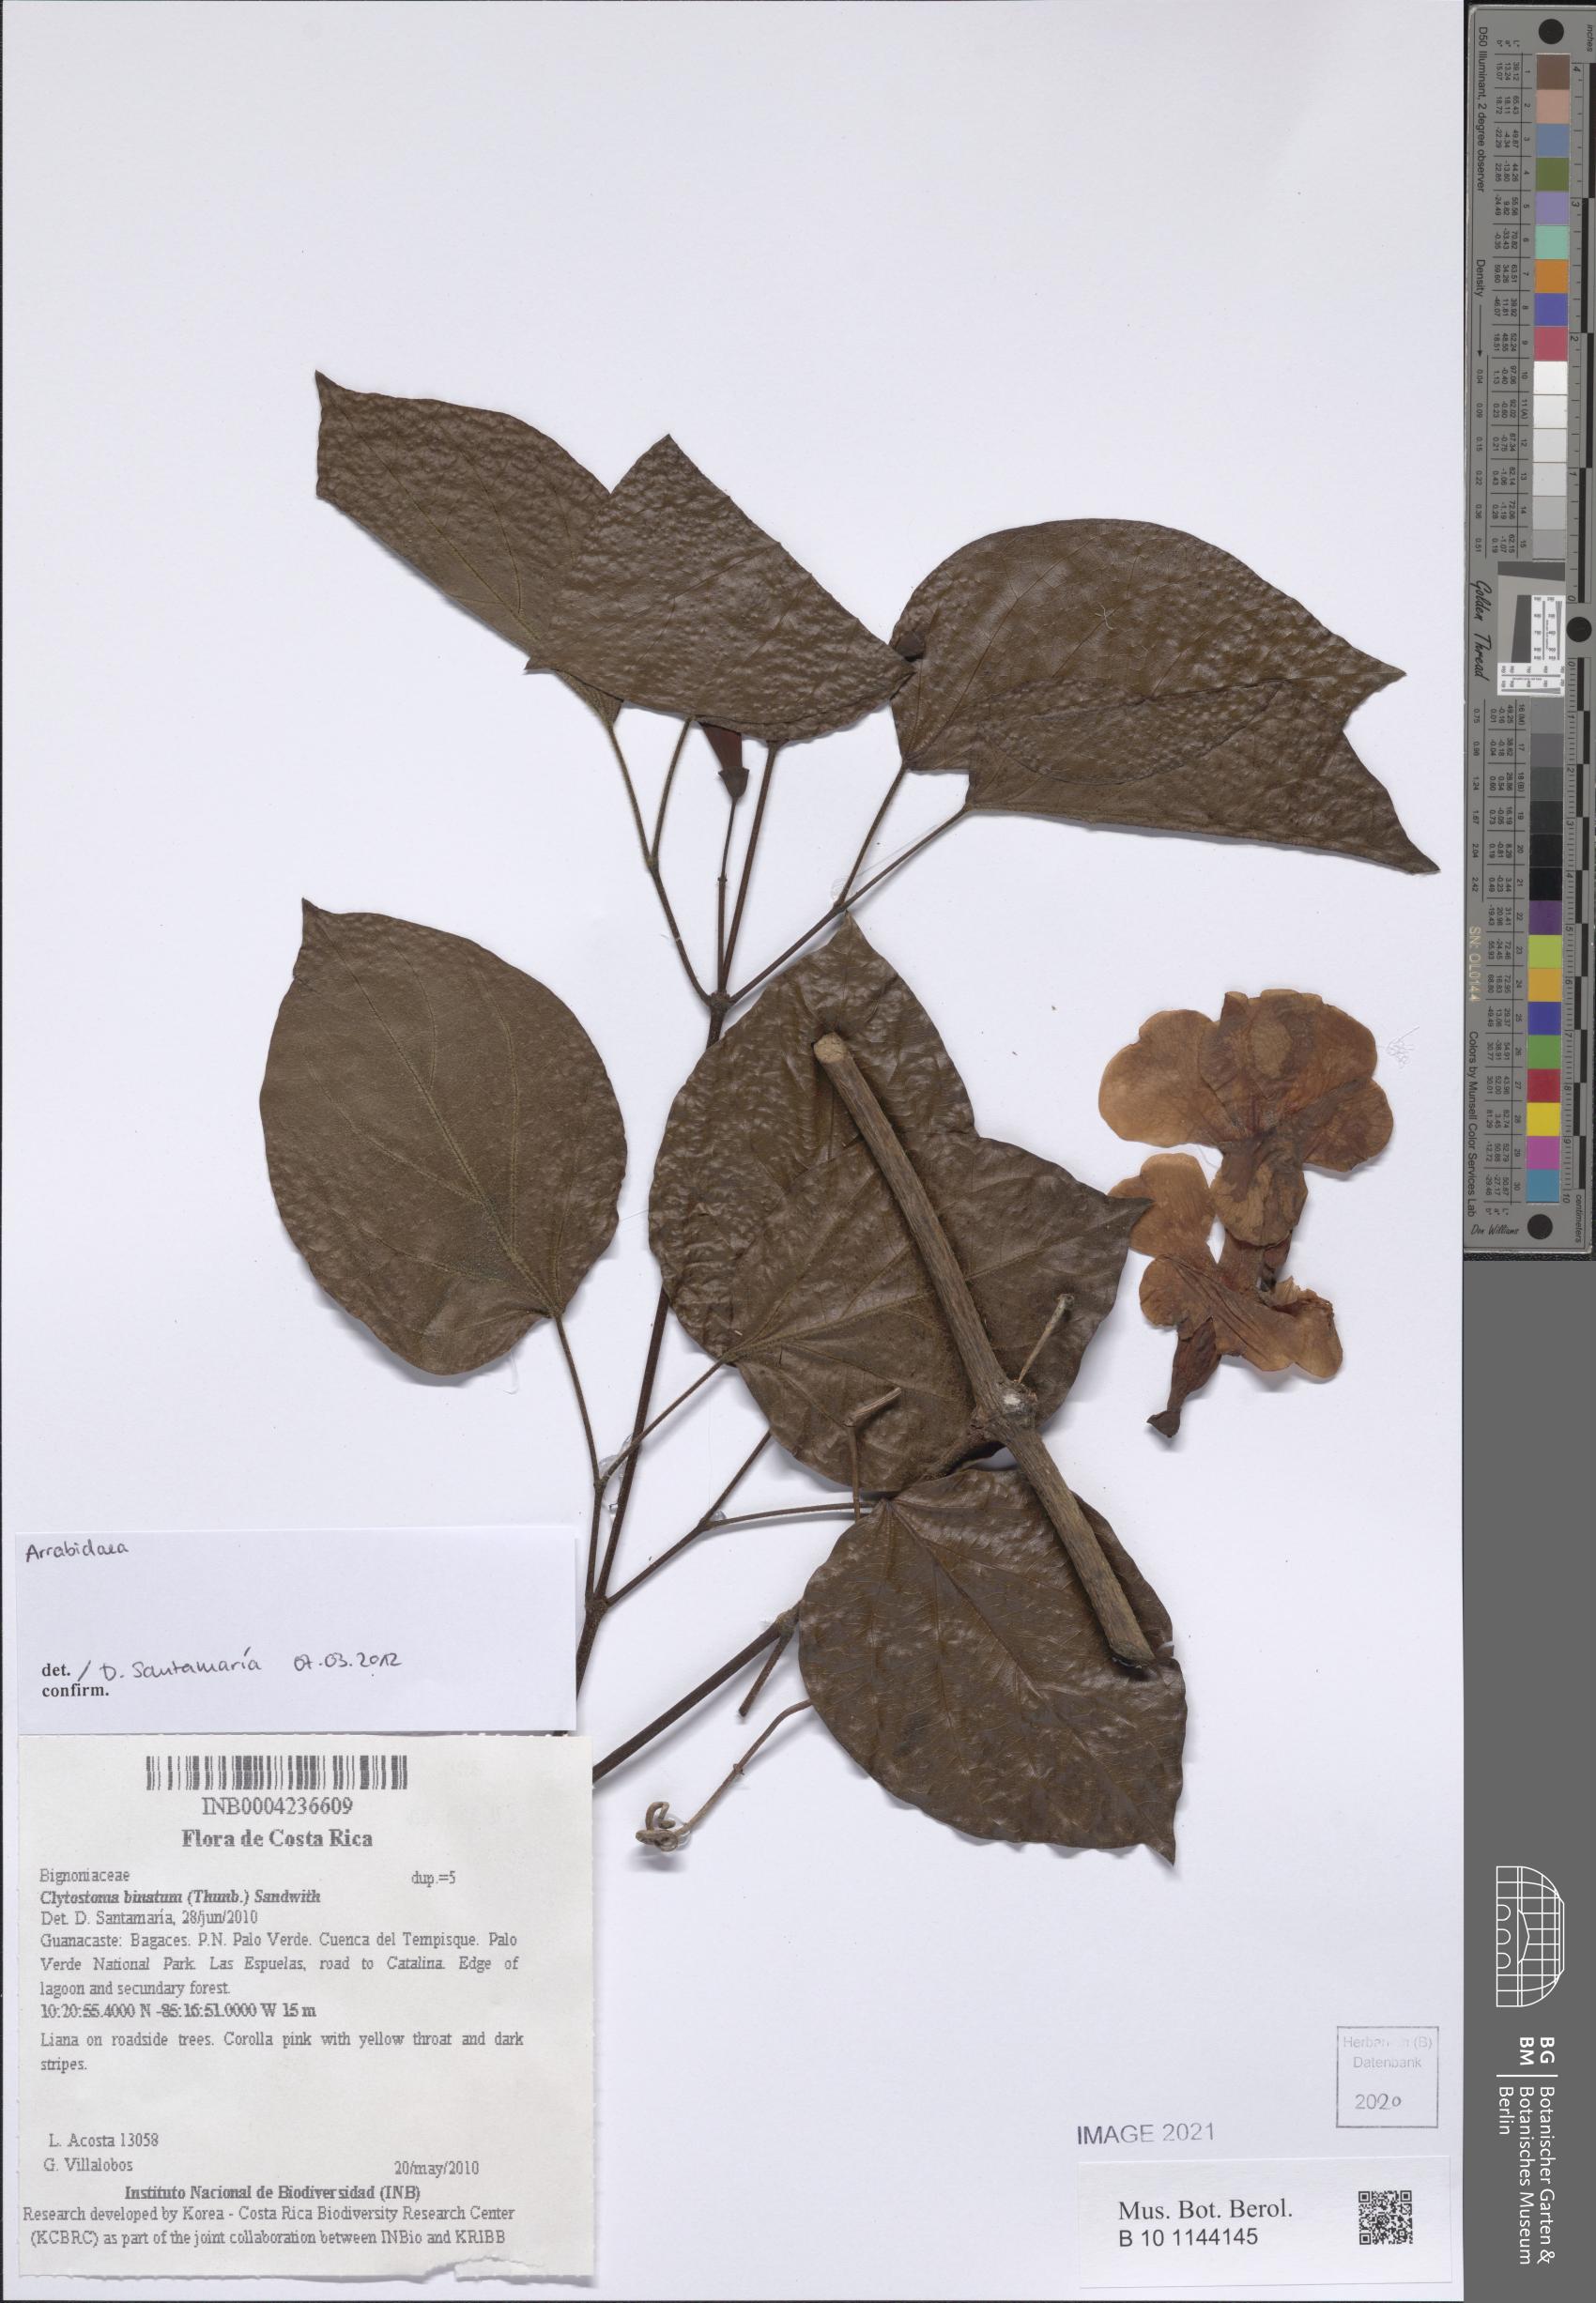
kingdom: Plantae
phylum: Tracheophyta
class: Magnoliopsida
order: Rosales
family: Rhamnaceae
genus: Arrabidaea
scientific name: Arrabidaea
